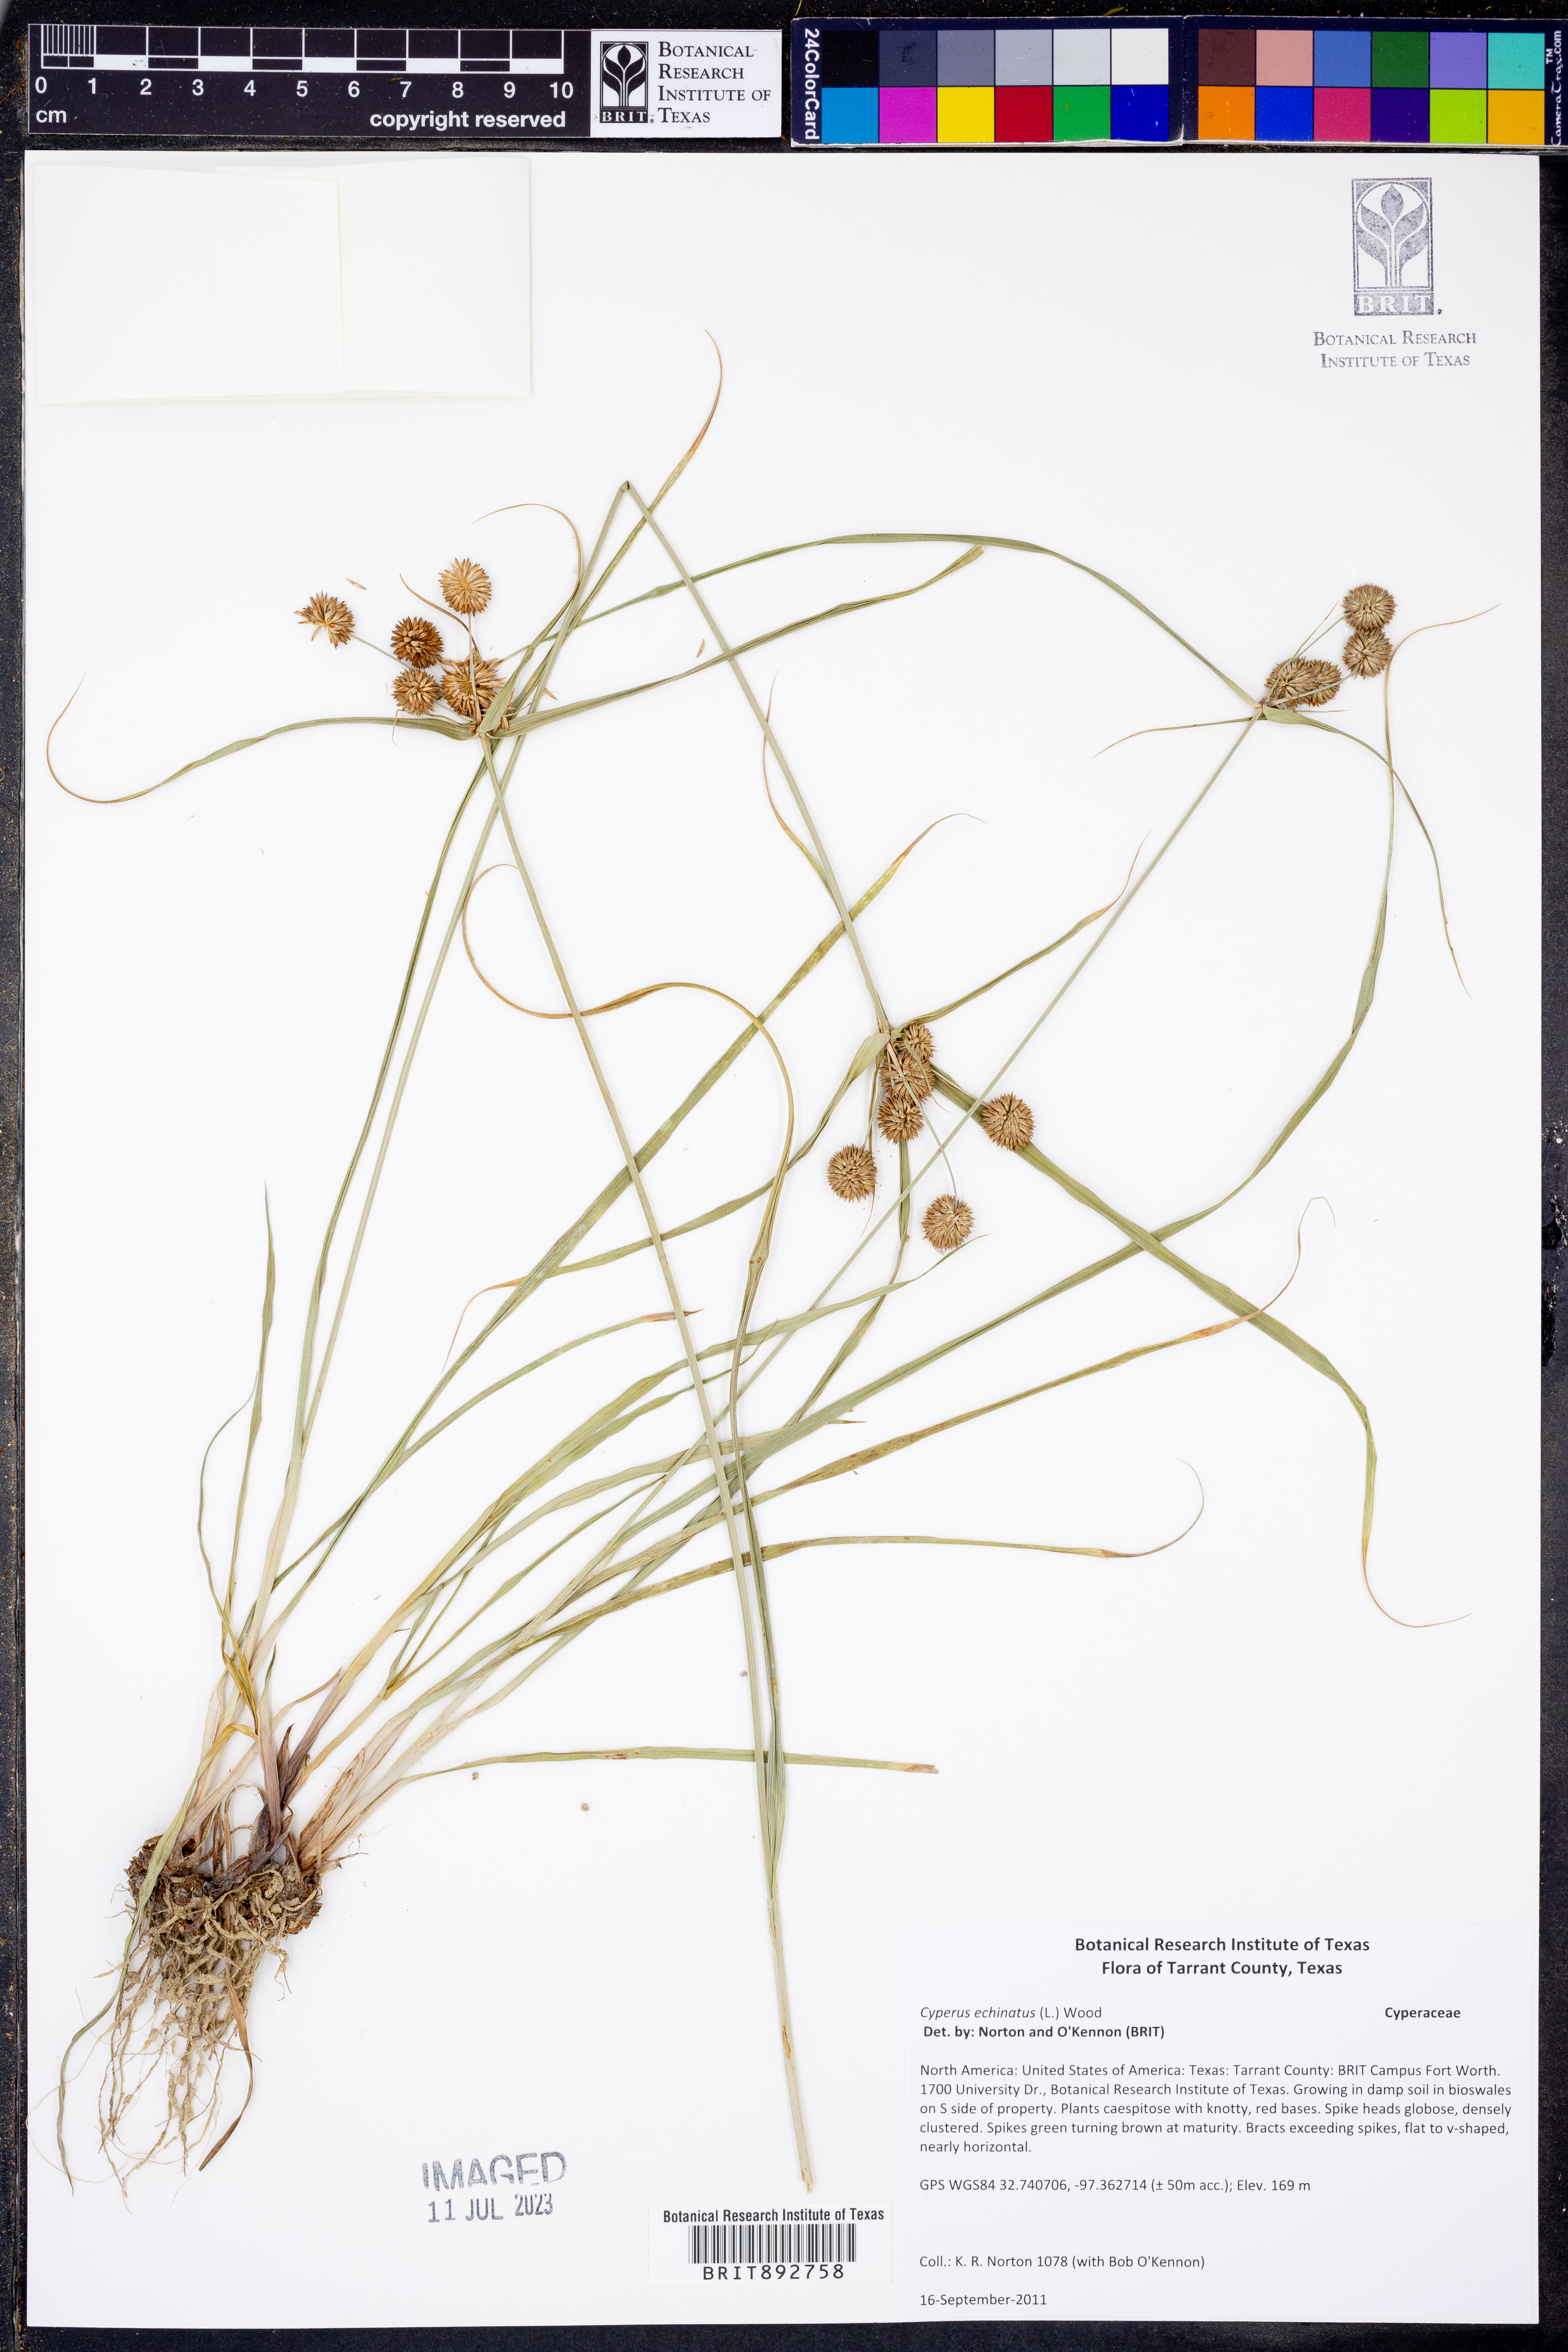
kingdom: Plantae
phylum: Tracheophyta
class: Liliopsida
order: Poales
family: Cyperaceae
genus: Cyperus
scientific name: Cyperus echinatus
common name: Teasel sedge
